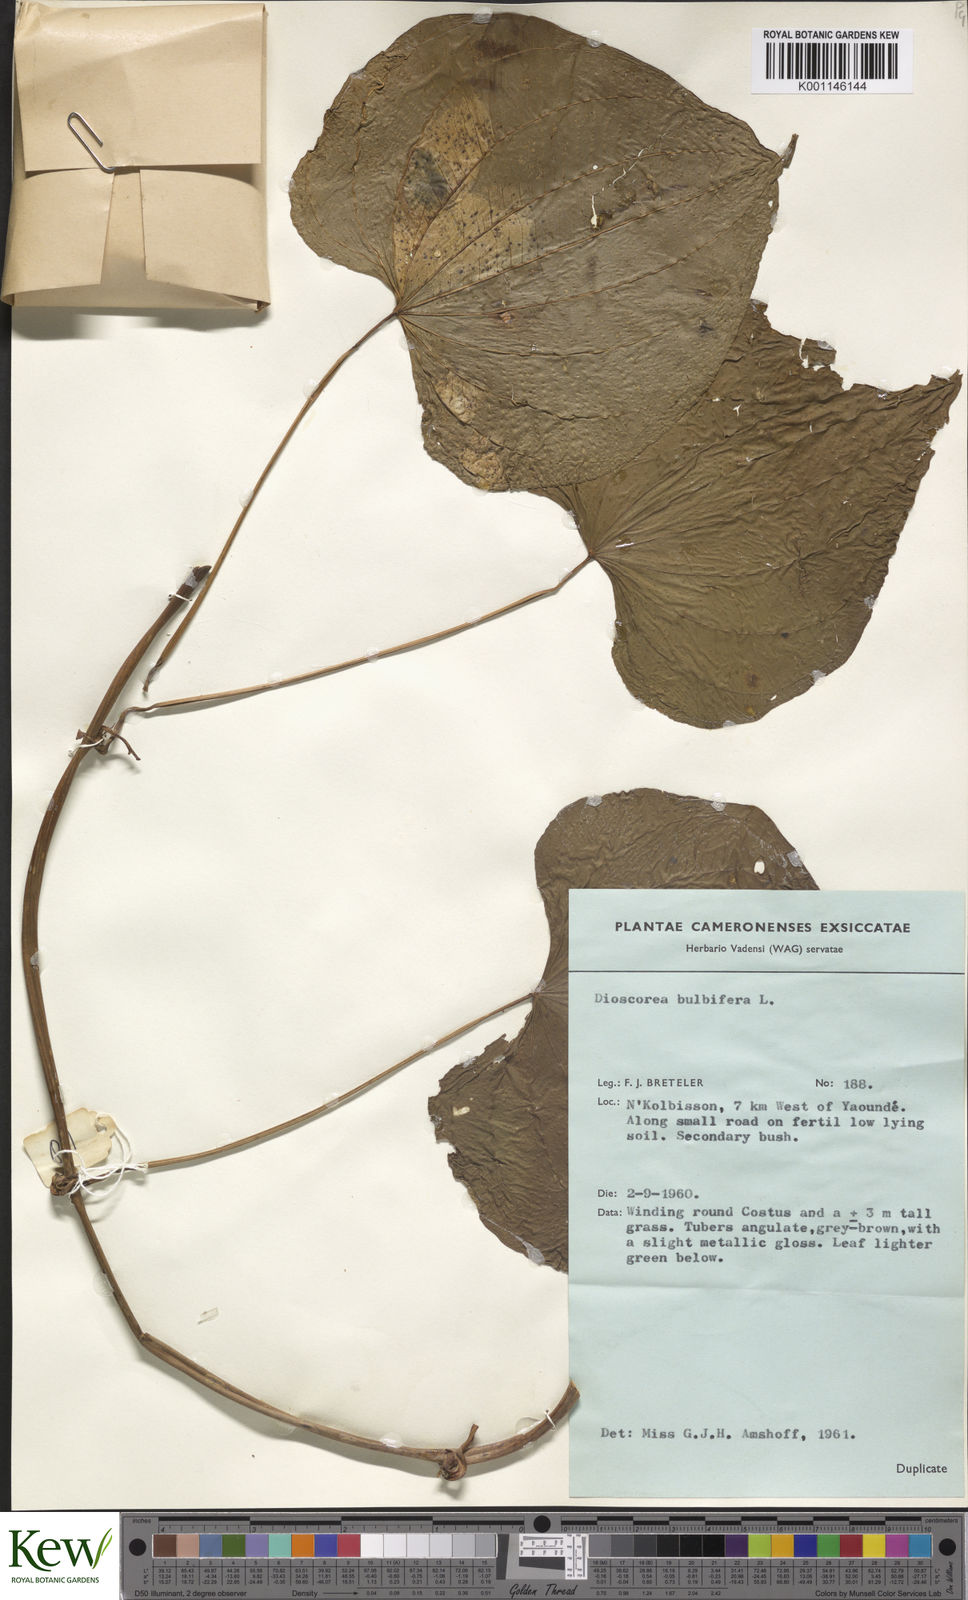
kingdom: Plantae
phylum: Tracheophyta
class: Liliopsida
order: Dioscoreales
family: Dioscoreaceae
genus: Dioscorea
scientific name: Dioscorea bulbifera
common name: Air yam
